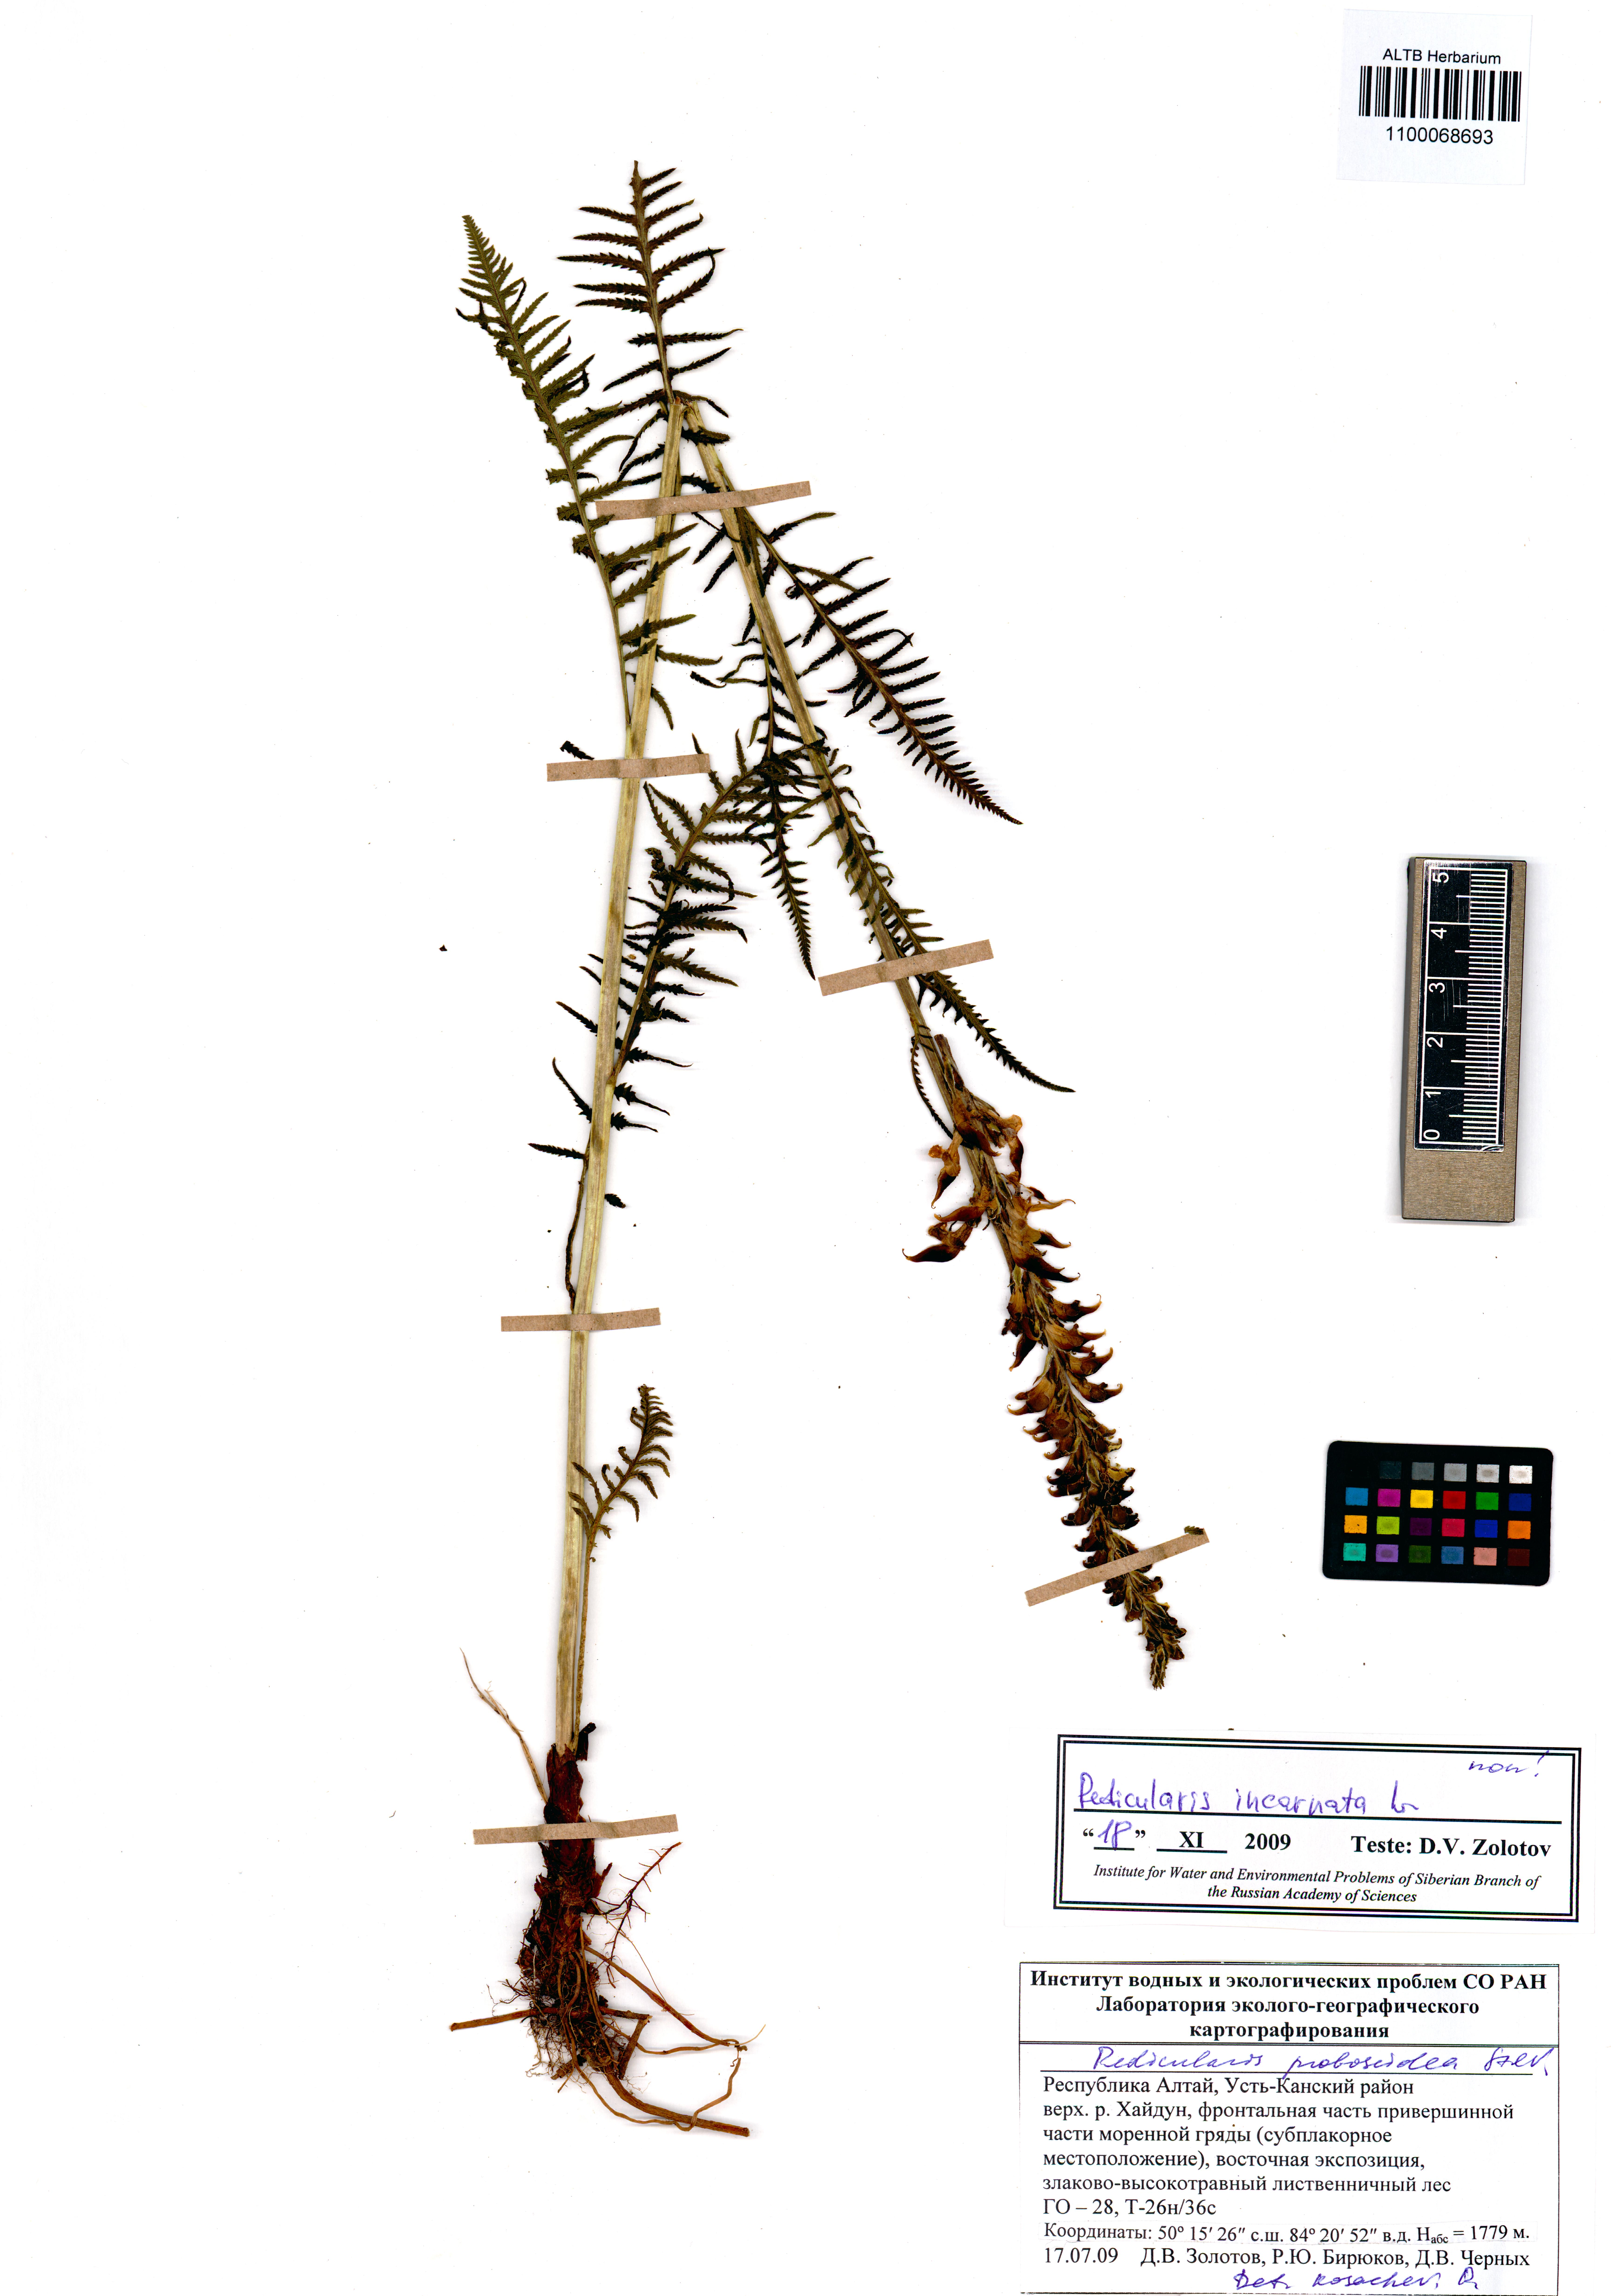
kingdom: Plantae
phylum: Tracheophyta
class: Magnoliopsida
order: Lamiales
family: Orobanchaceae
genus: Pedicularis
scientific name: Pedicularis incarnata
